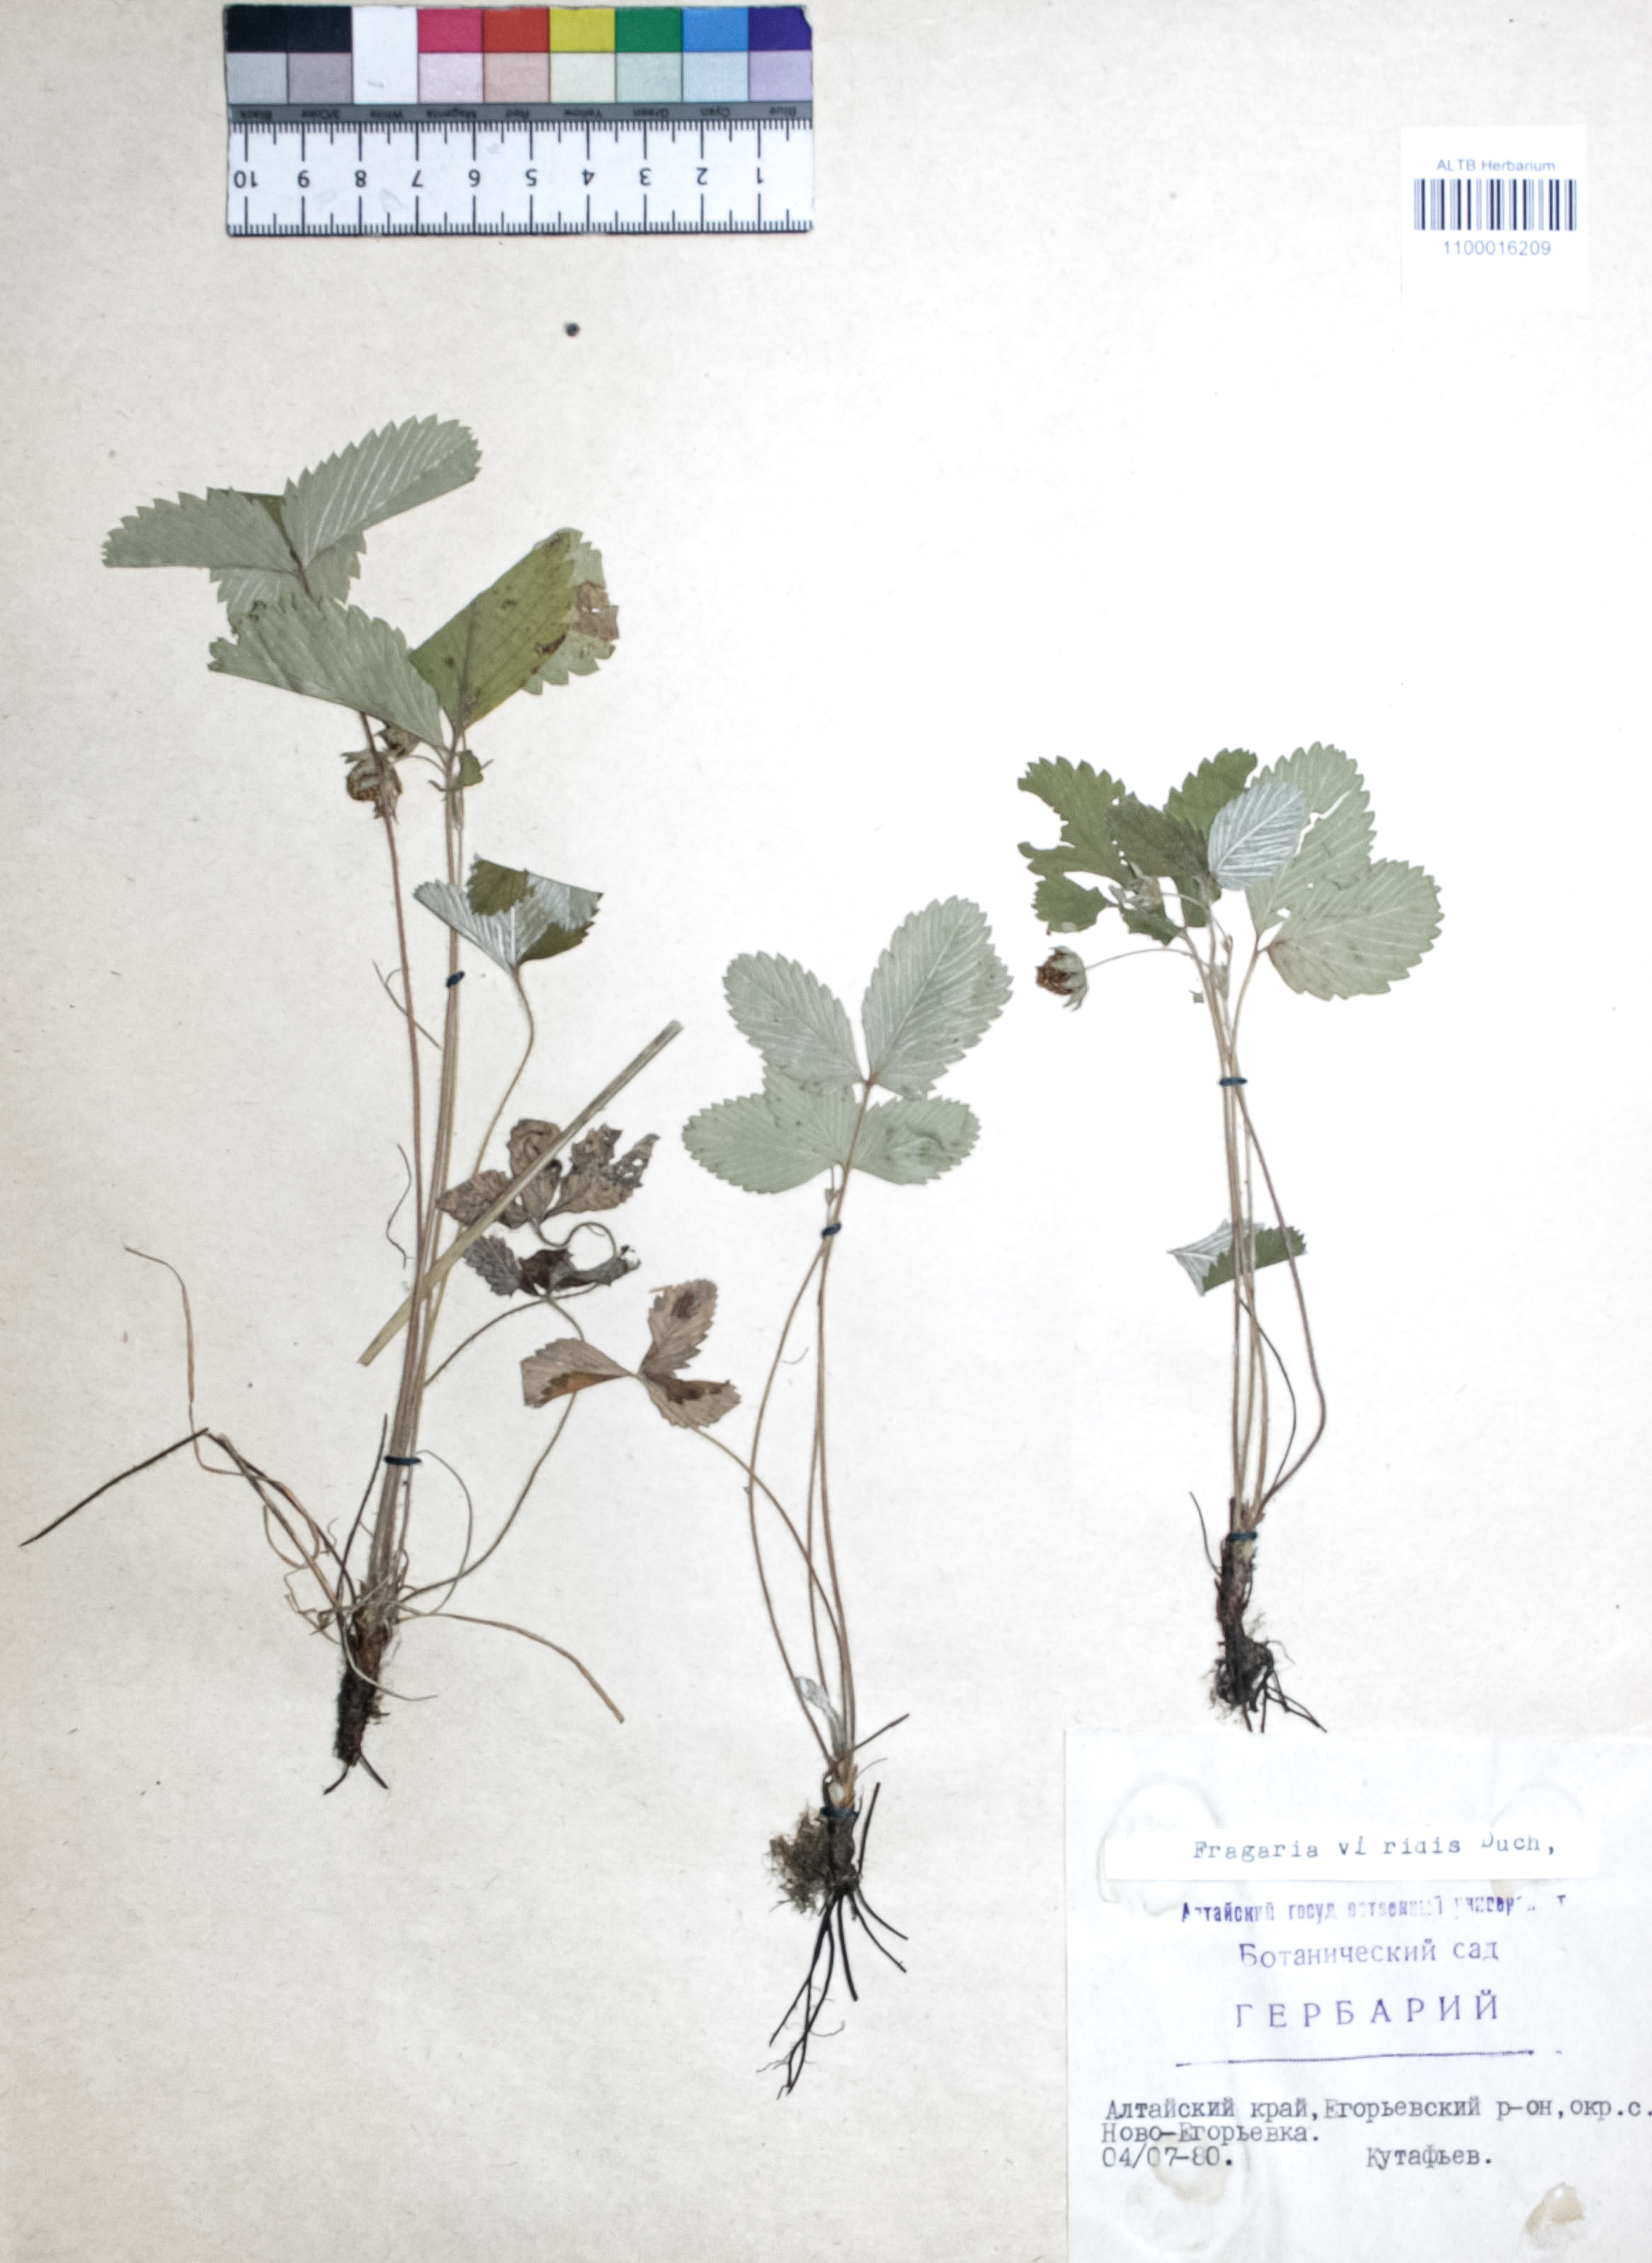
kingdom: Plantae
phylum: Tracheophyta
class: Magnoliopsida
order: Rosales
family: Rosaceae
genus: Fragaria
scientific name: Fragaria viridis
